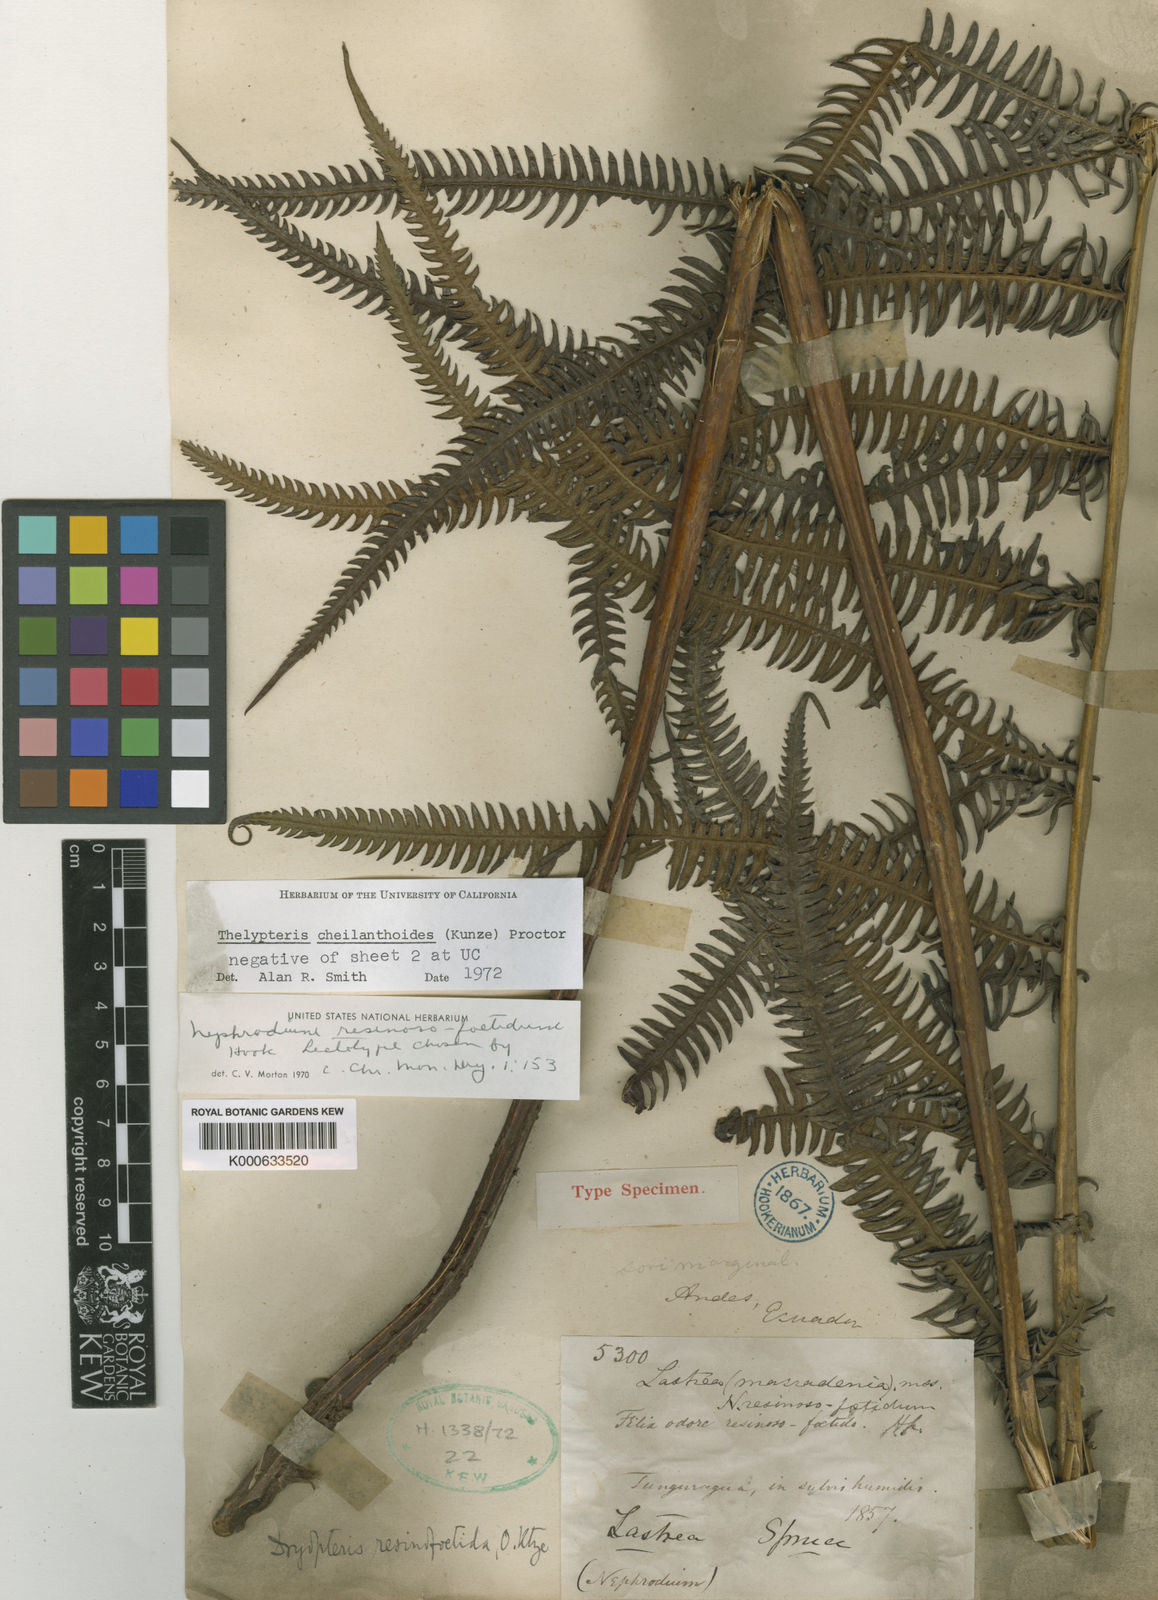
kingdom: Plantae
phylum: Tracheophyta
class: Polypodiopsida
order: Polypodiales
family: Thelypteridaceae
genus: Amauropelta
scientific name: Amauropelta
